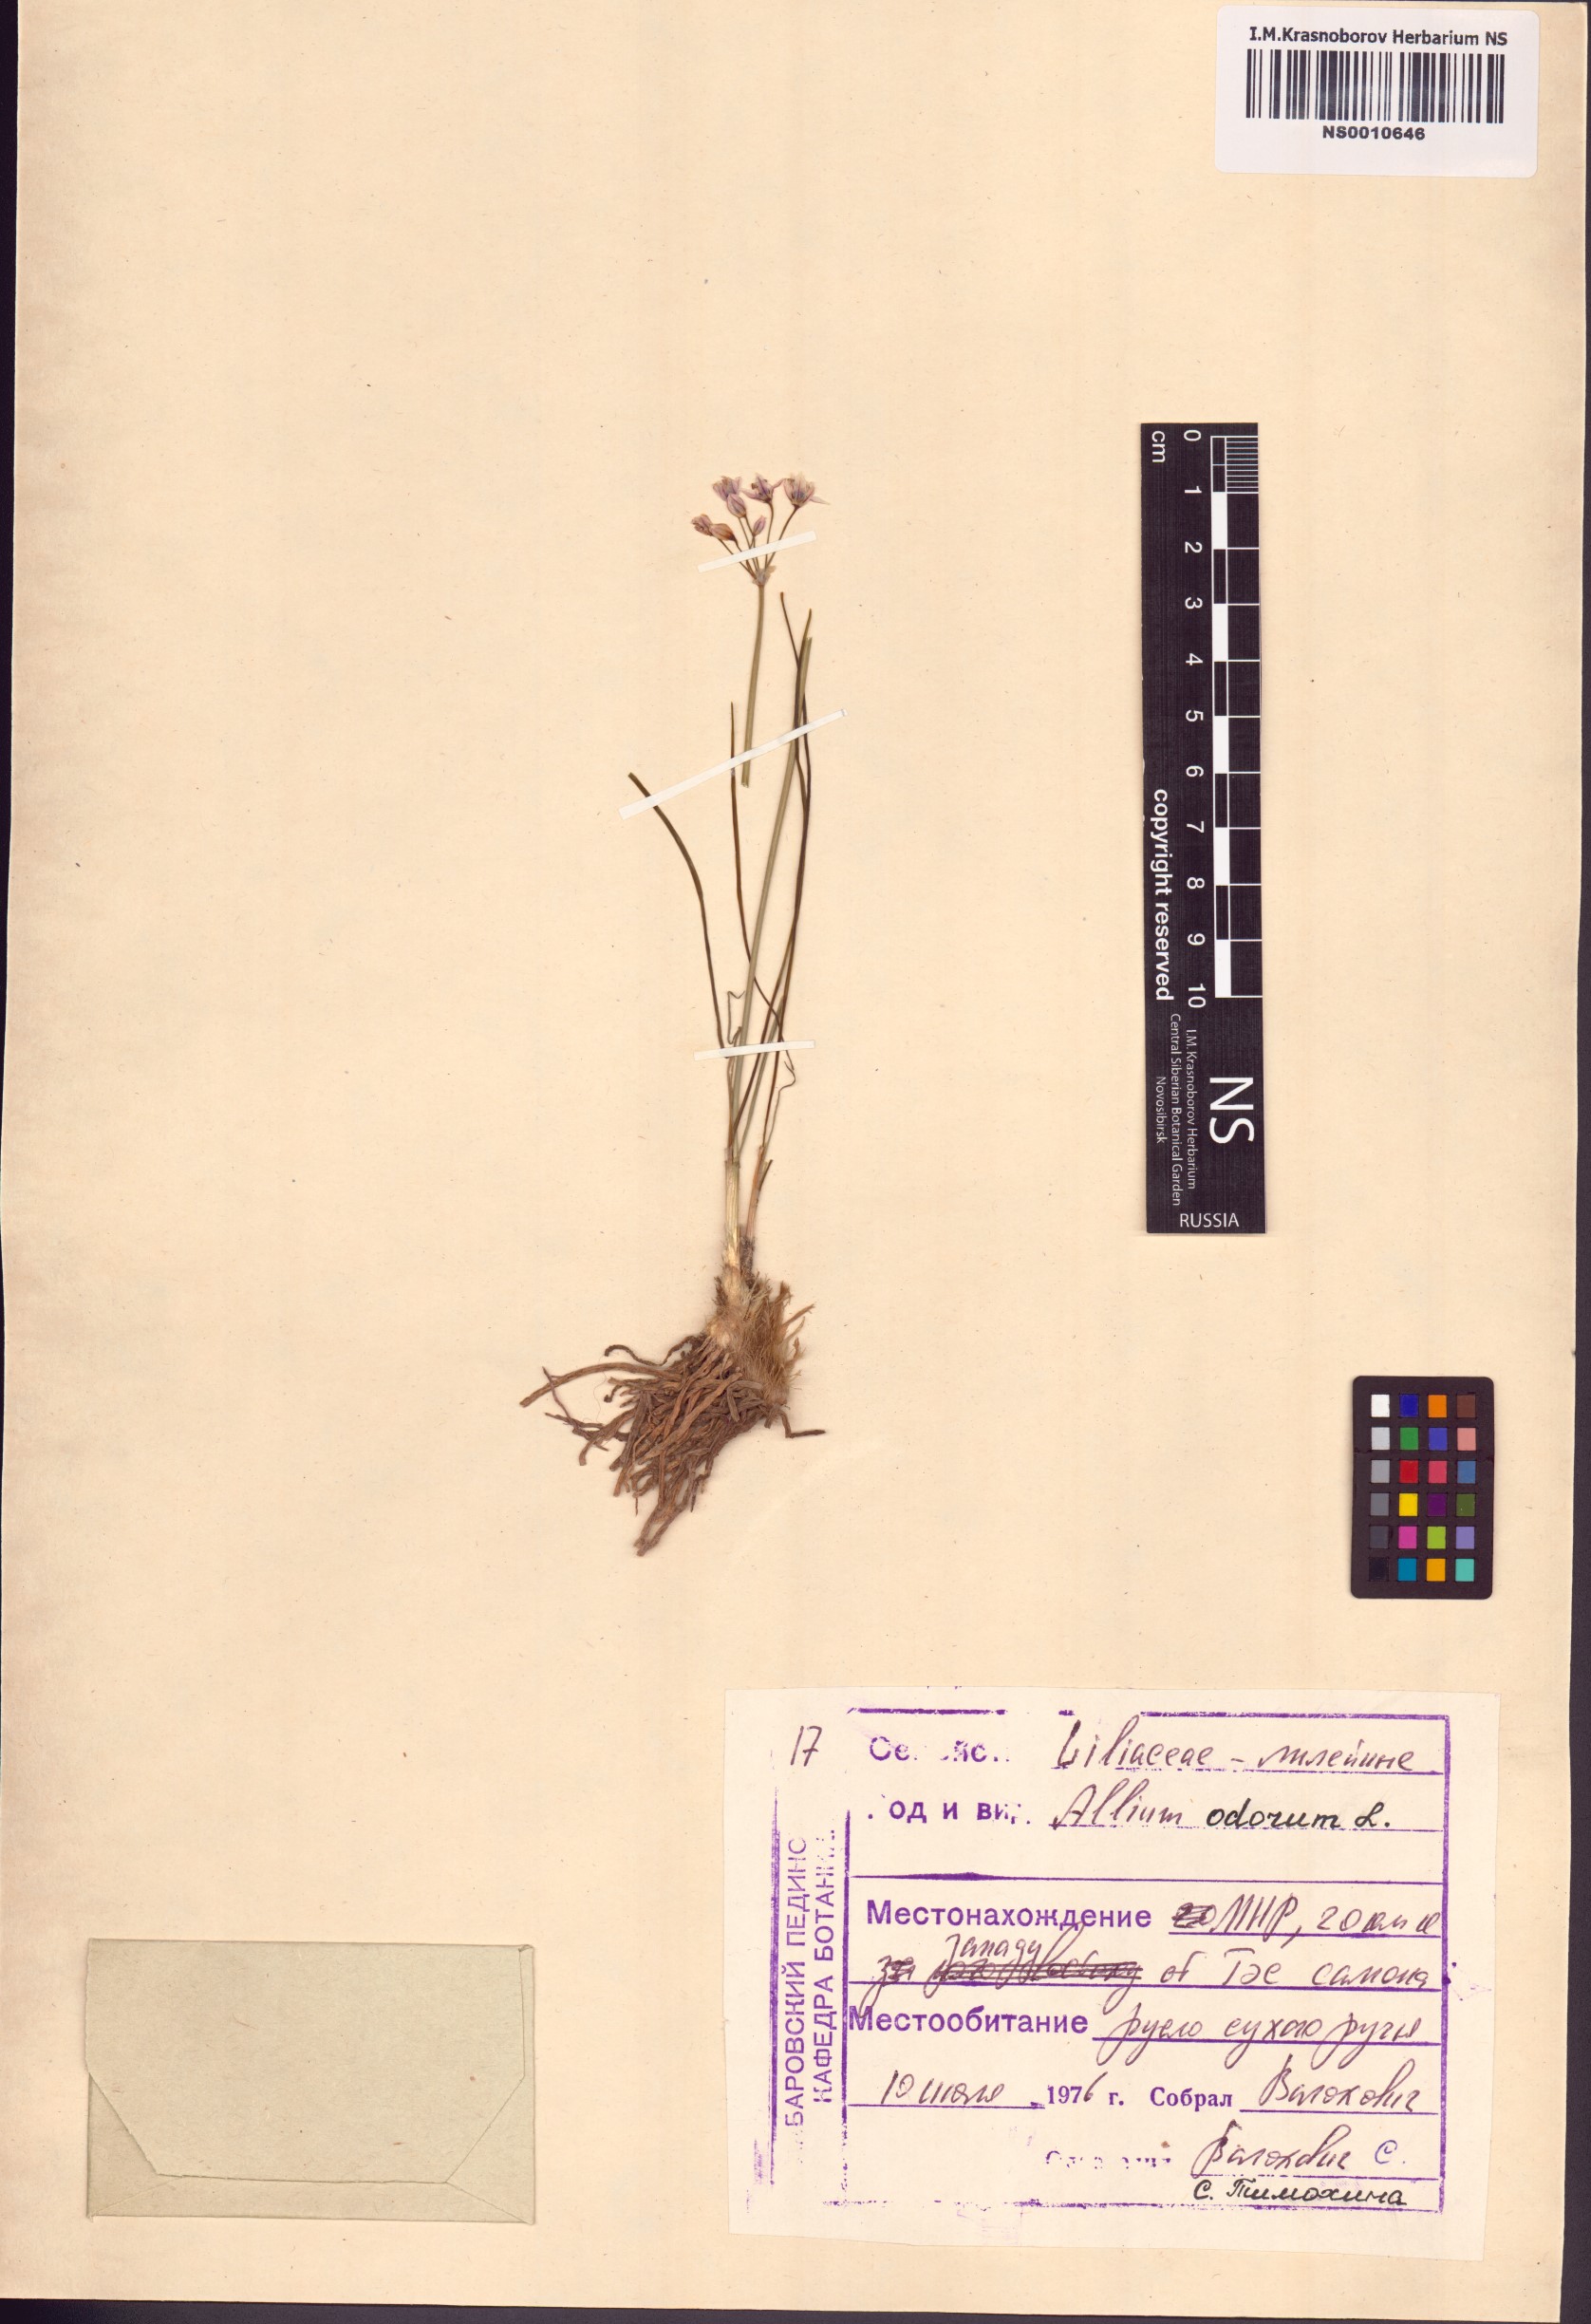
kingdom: Plantae
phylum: Tracheophyta
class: Liliopsida
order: Asparagales
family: Amaryllidaceae
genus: Allium
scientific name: Allium ramosum
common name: Fragrant garlic
